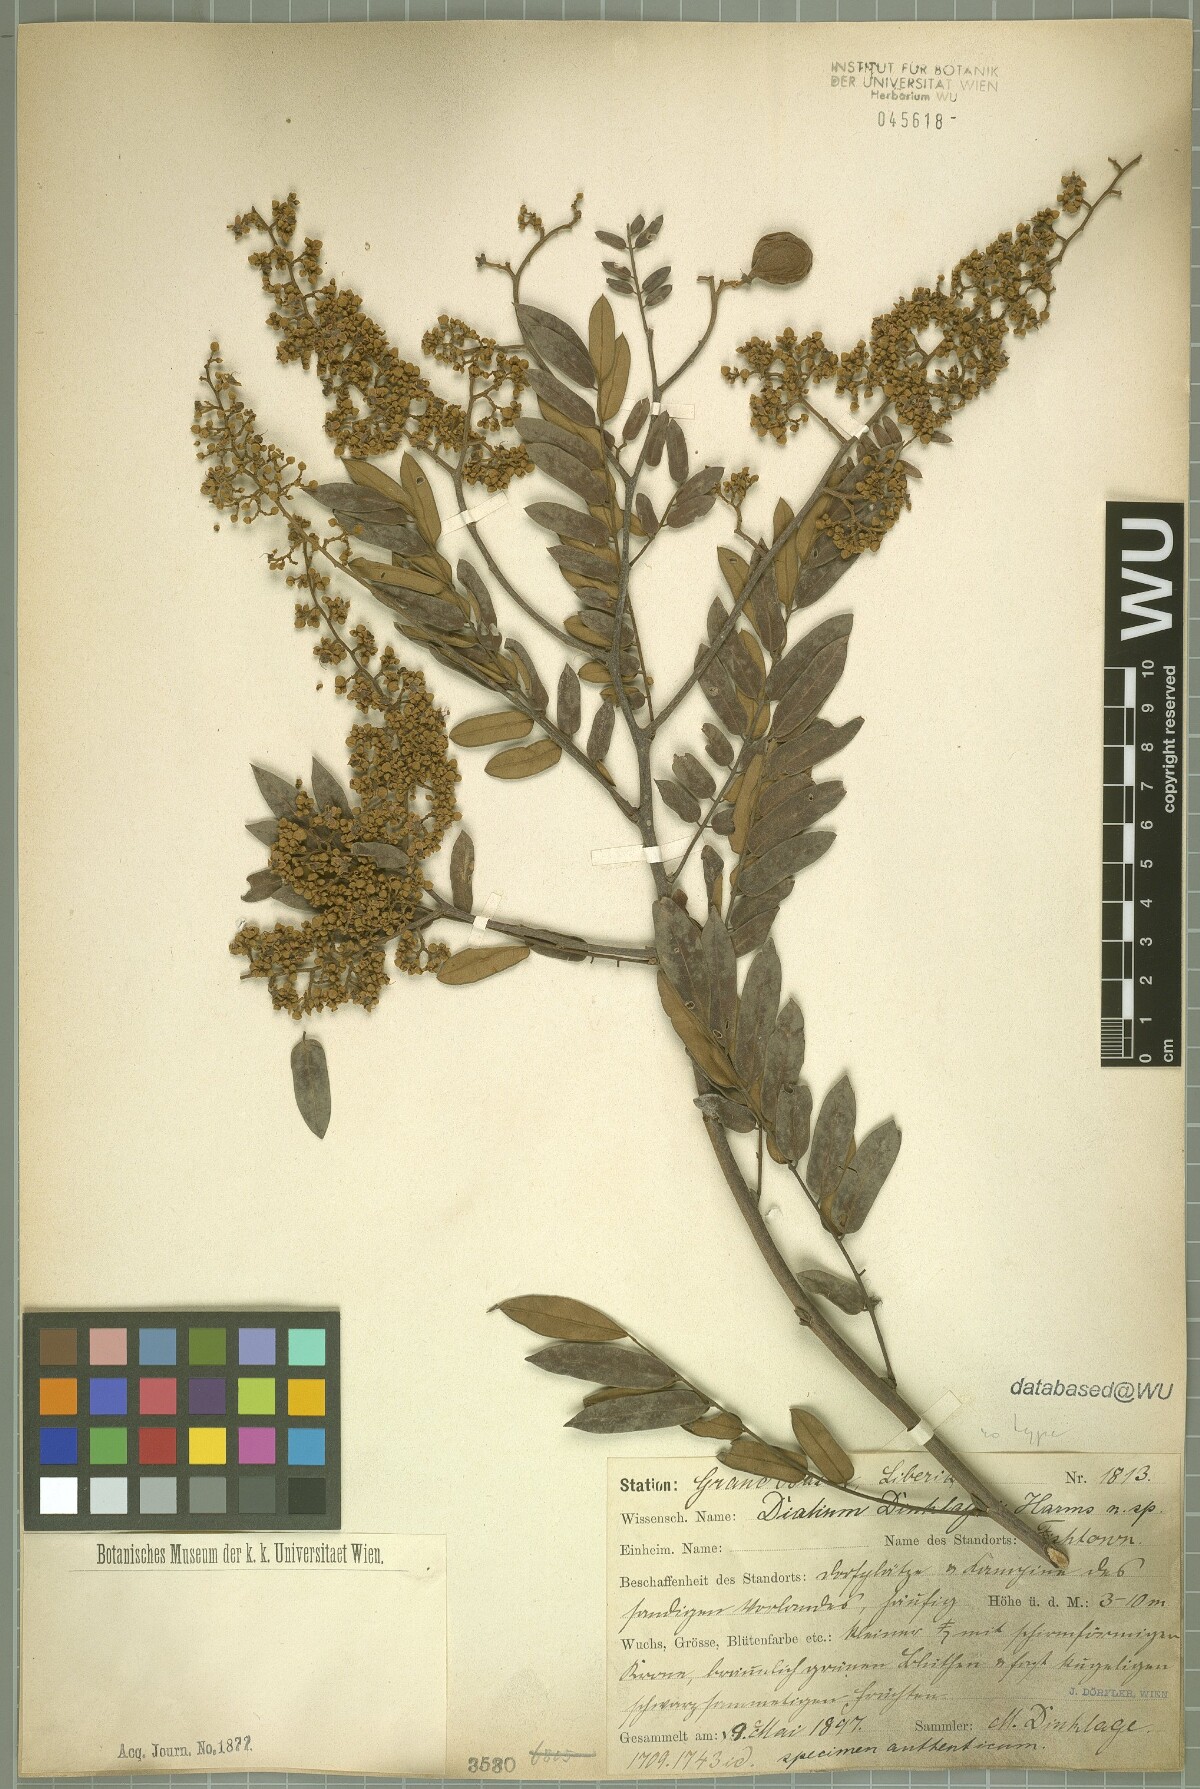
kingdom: Plantae
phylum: Tracheophyta
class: Magnoliopsida
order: Fabales
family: Fabaceae
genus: Dialium
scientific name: Dialium dinklagei
